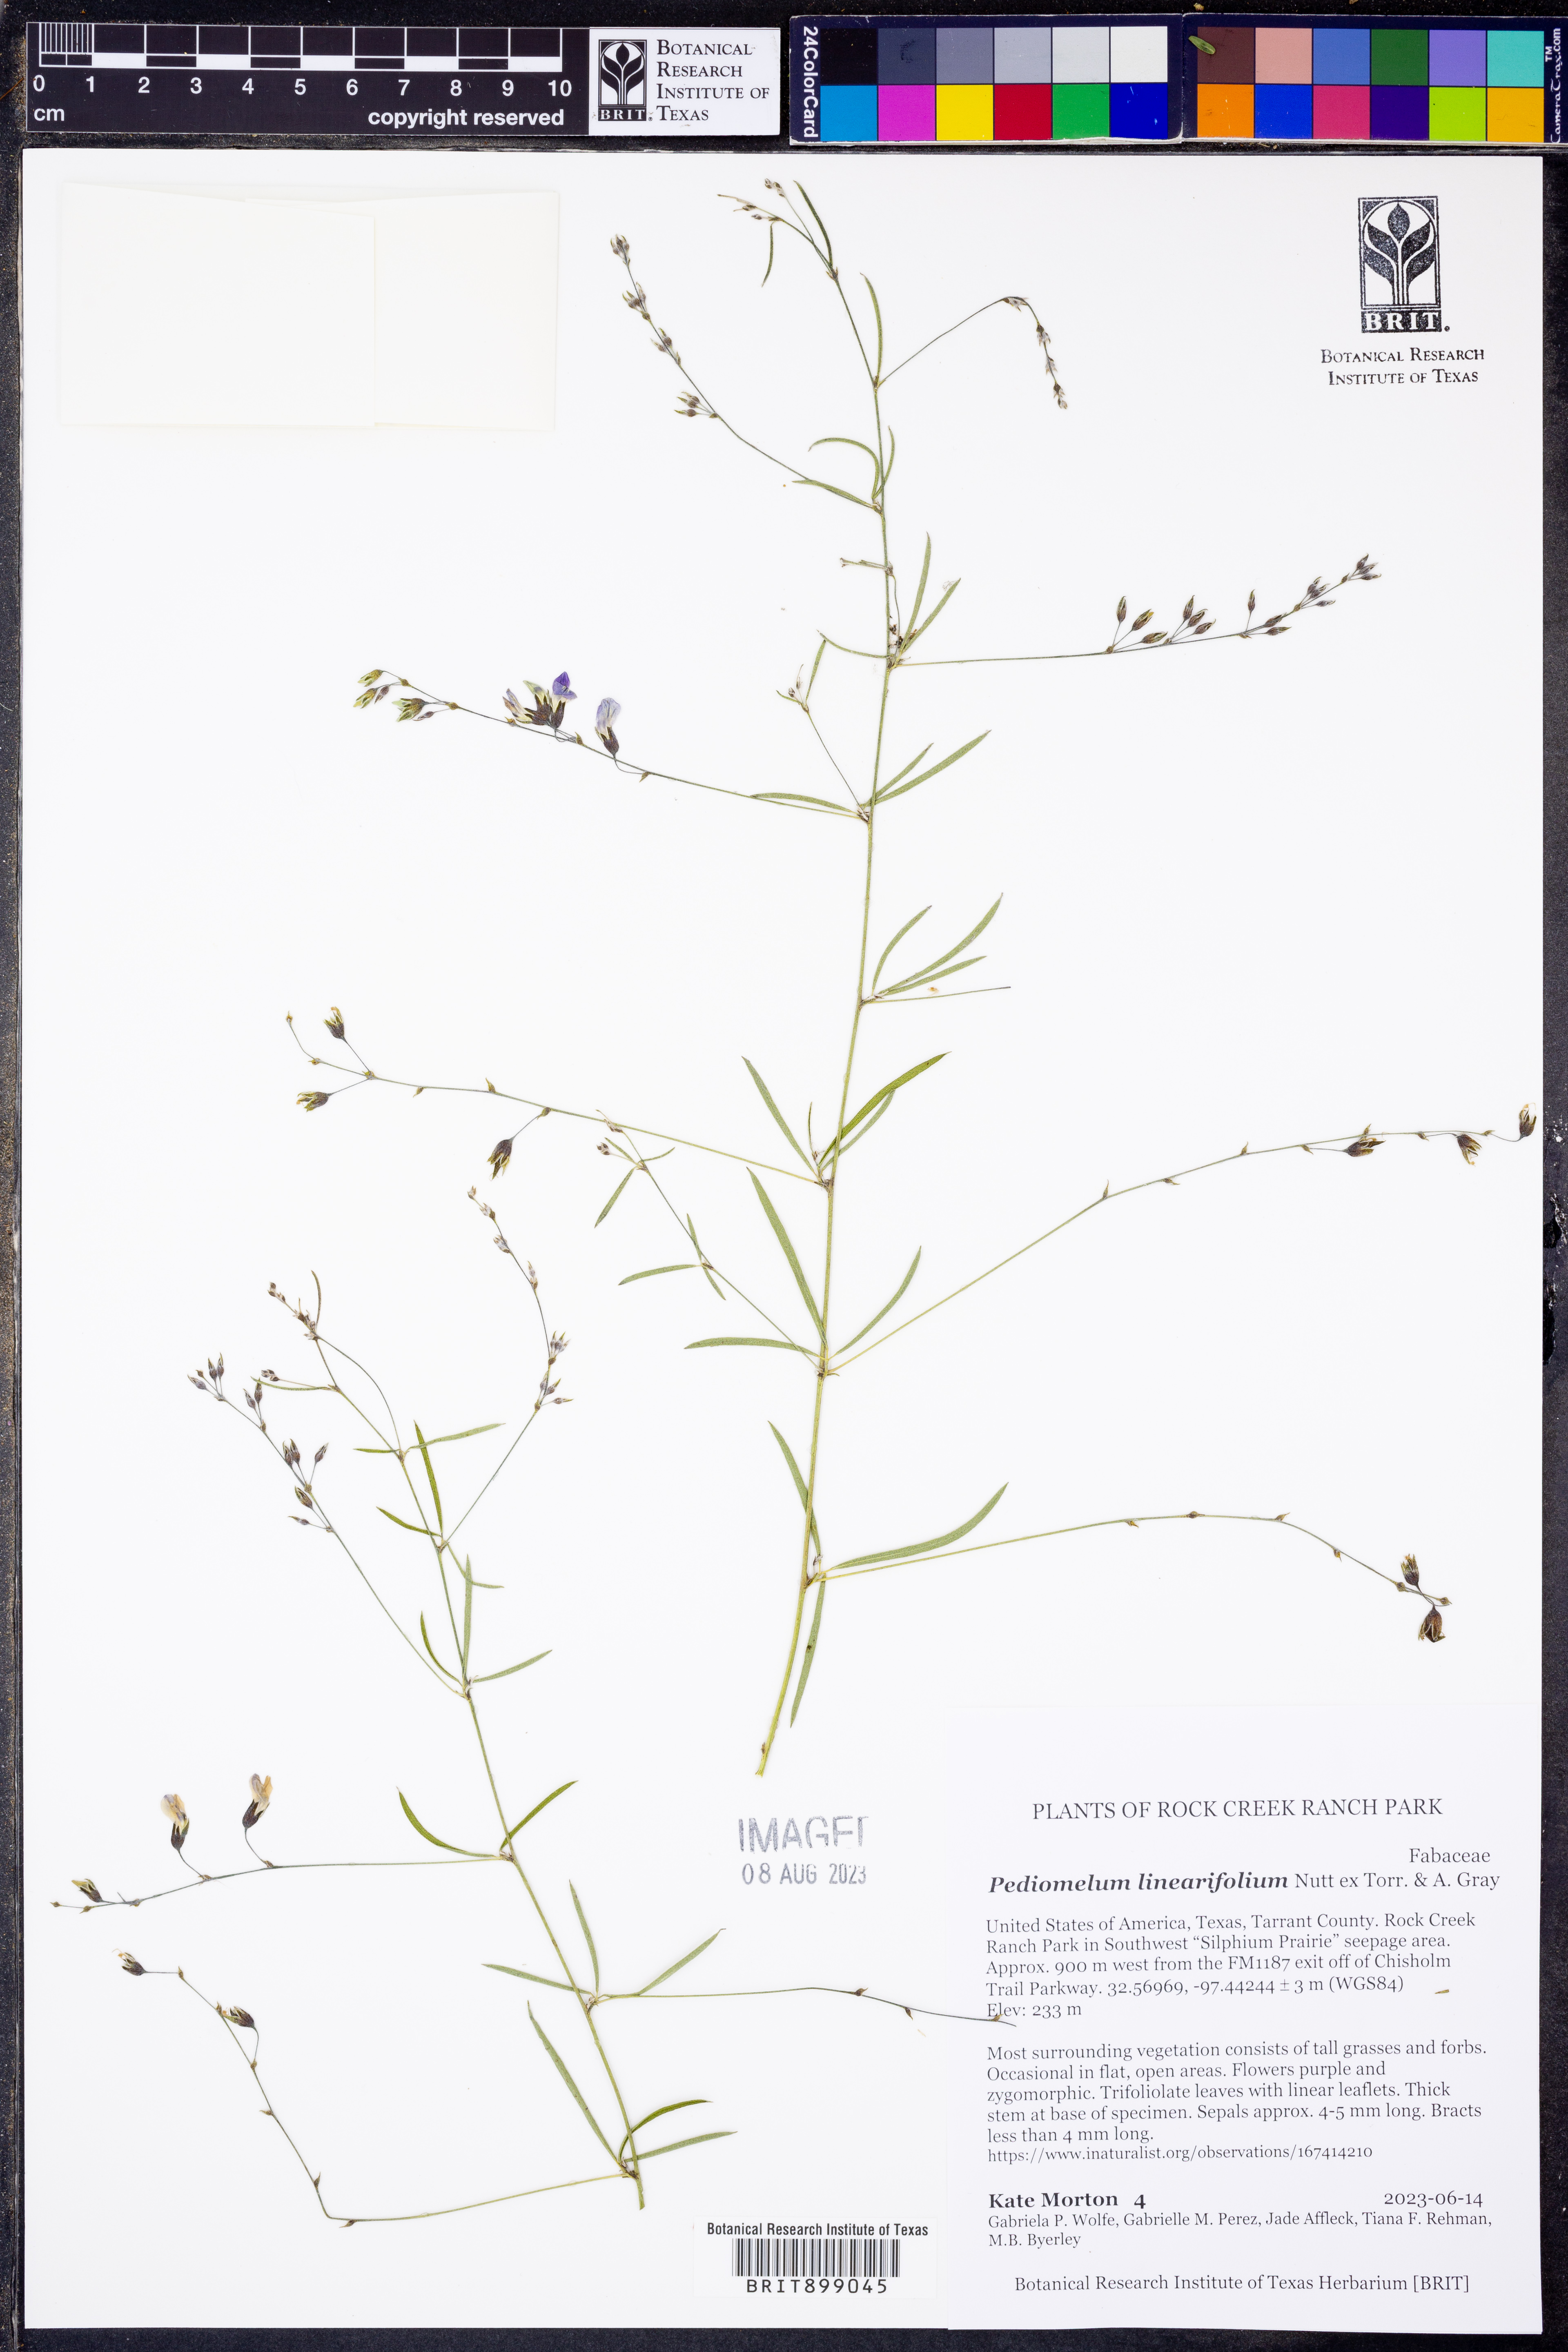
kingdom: Plantae
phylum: Tracheophyta
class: Magnoliopsida
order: Fabales
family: Fabaceae
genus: Pediomelum
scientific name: Pediomelum linearifolium
